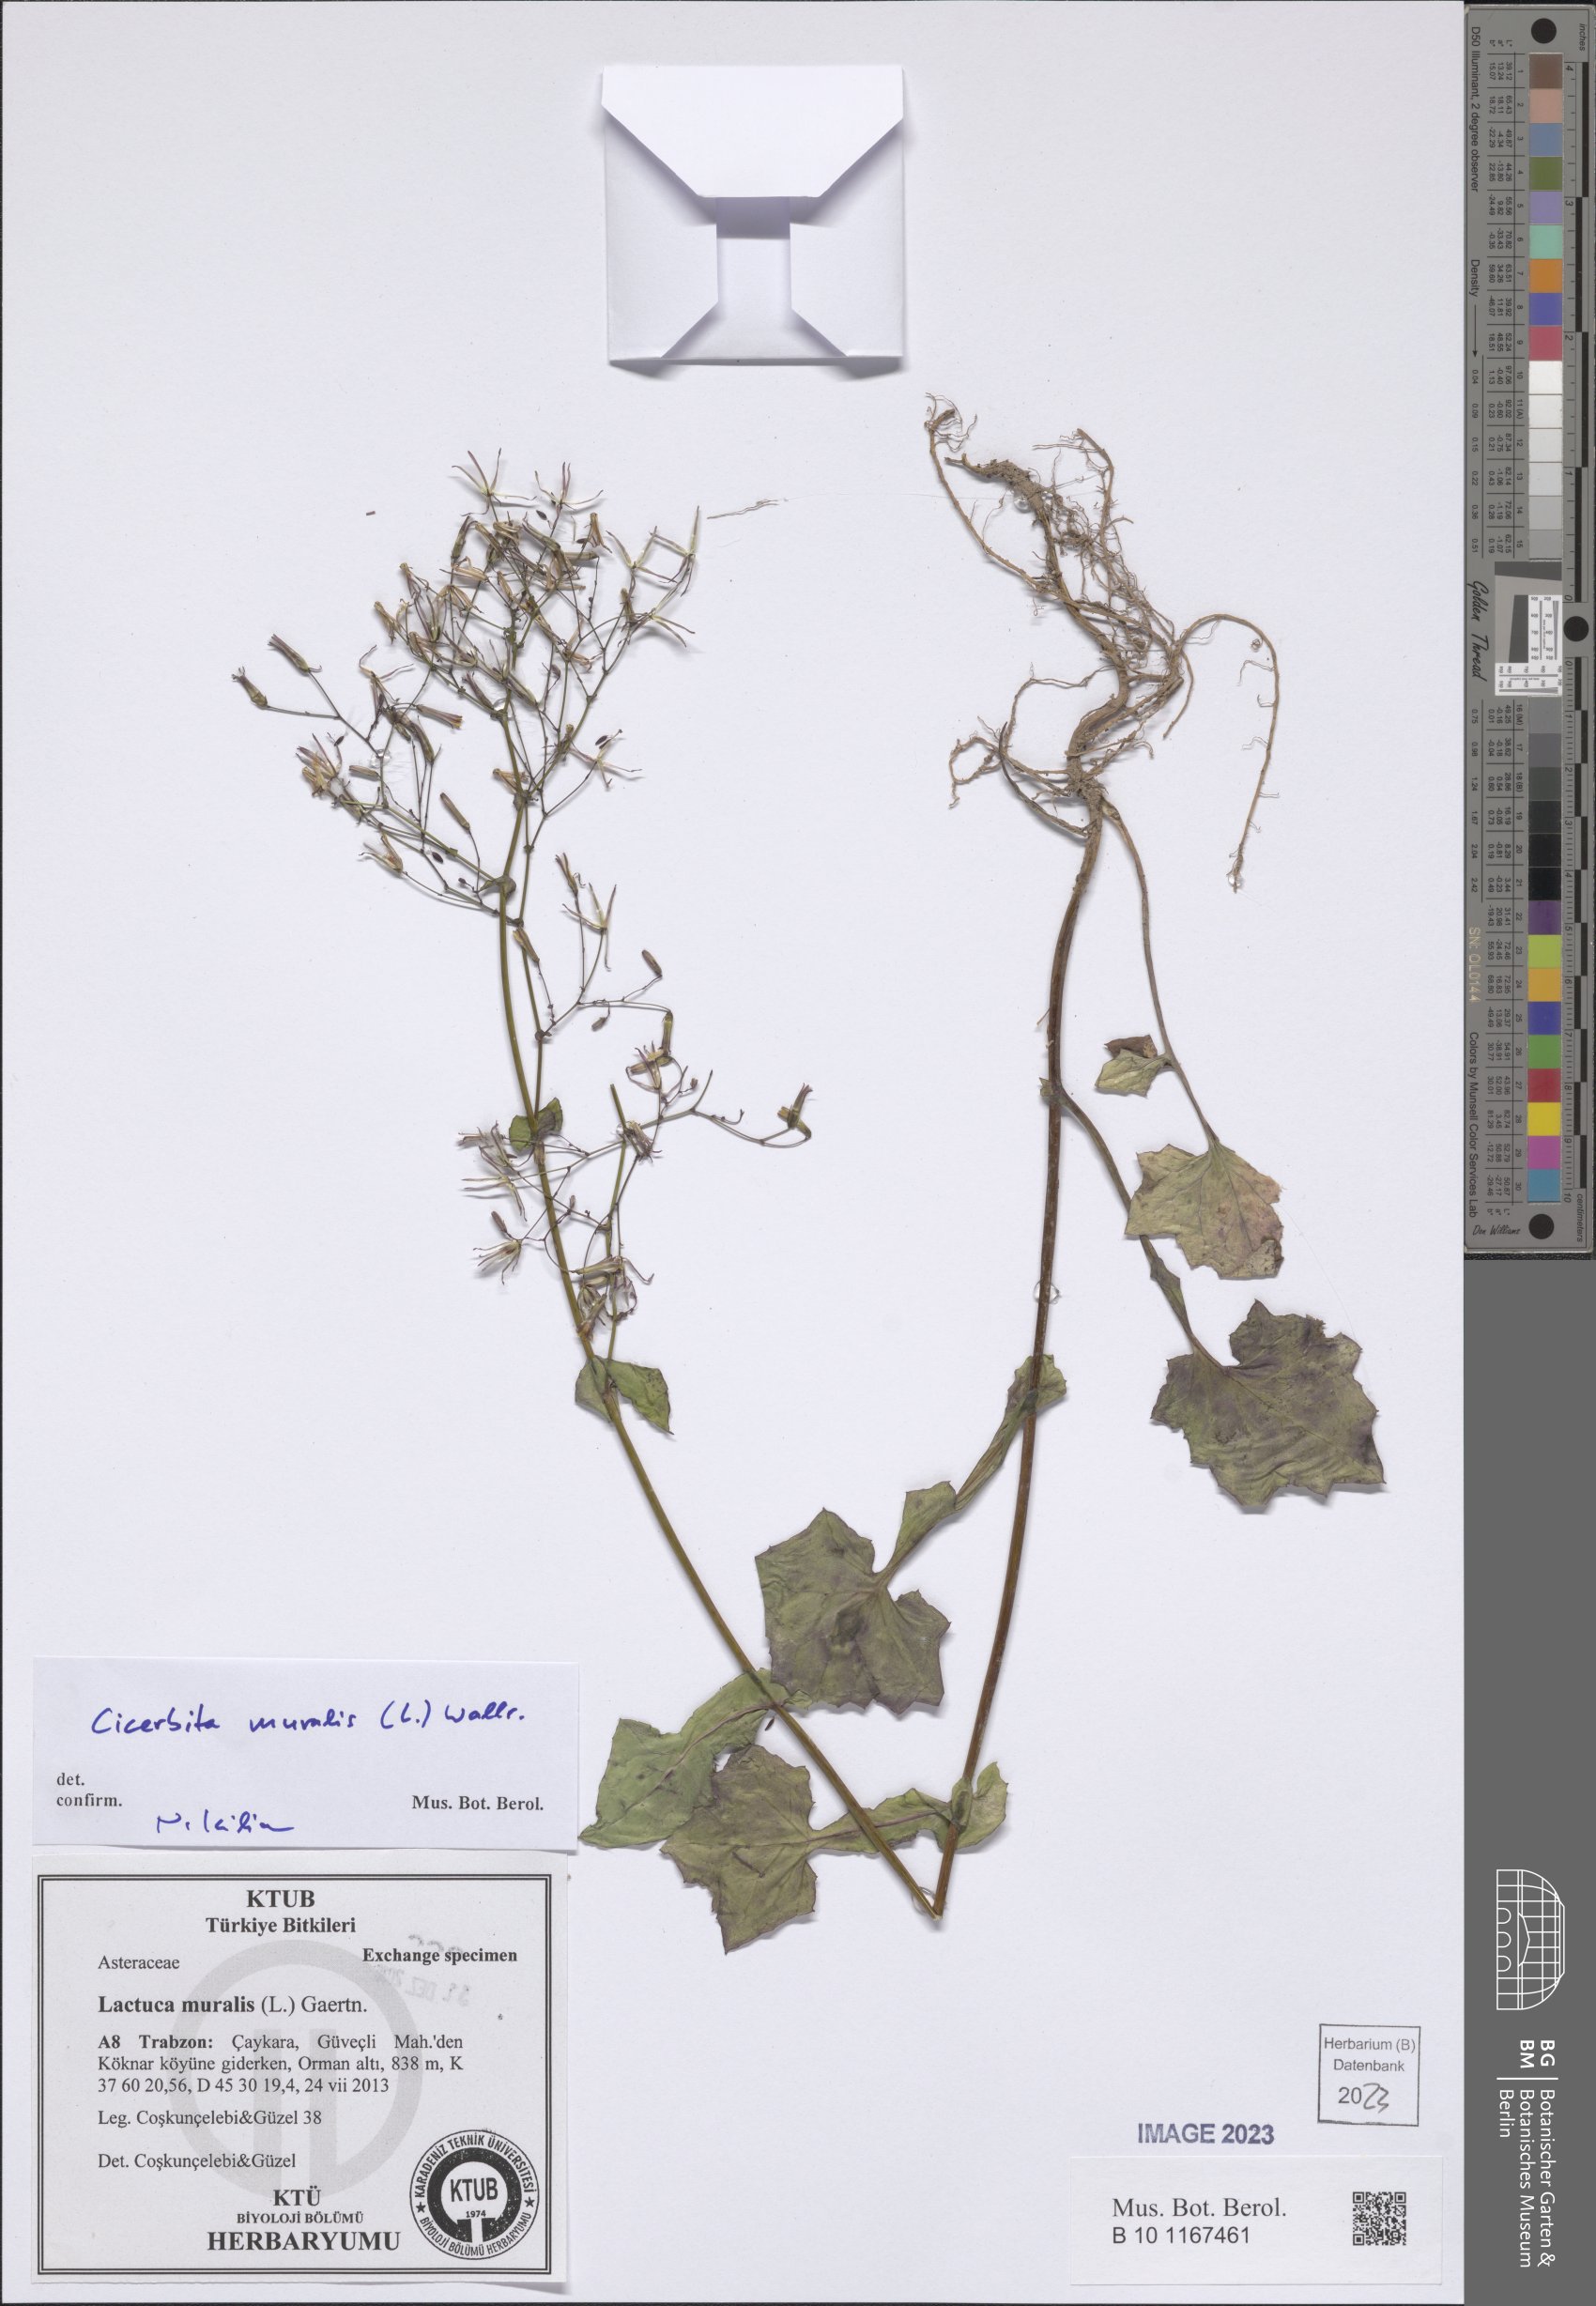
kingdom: Plantae
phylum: Tracheophyta
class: Magnoliopsida
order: Asterales
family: Asteraceae
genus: Mycelis
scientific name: Mycelis muralis
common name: Wall lettuce
